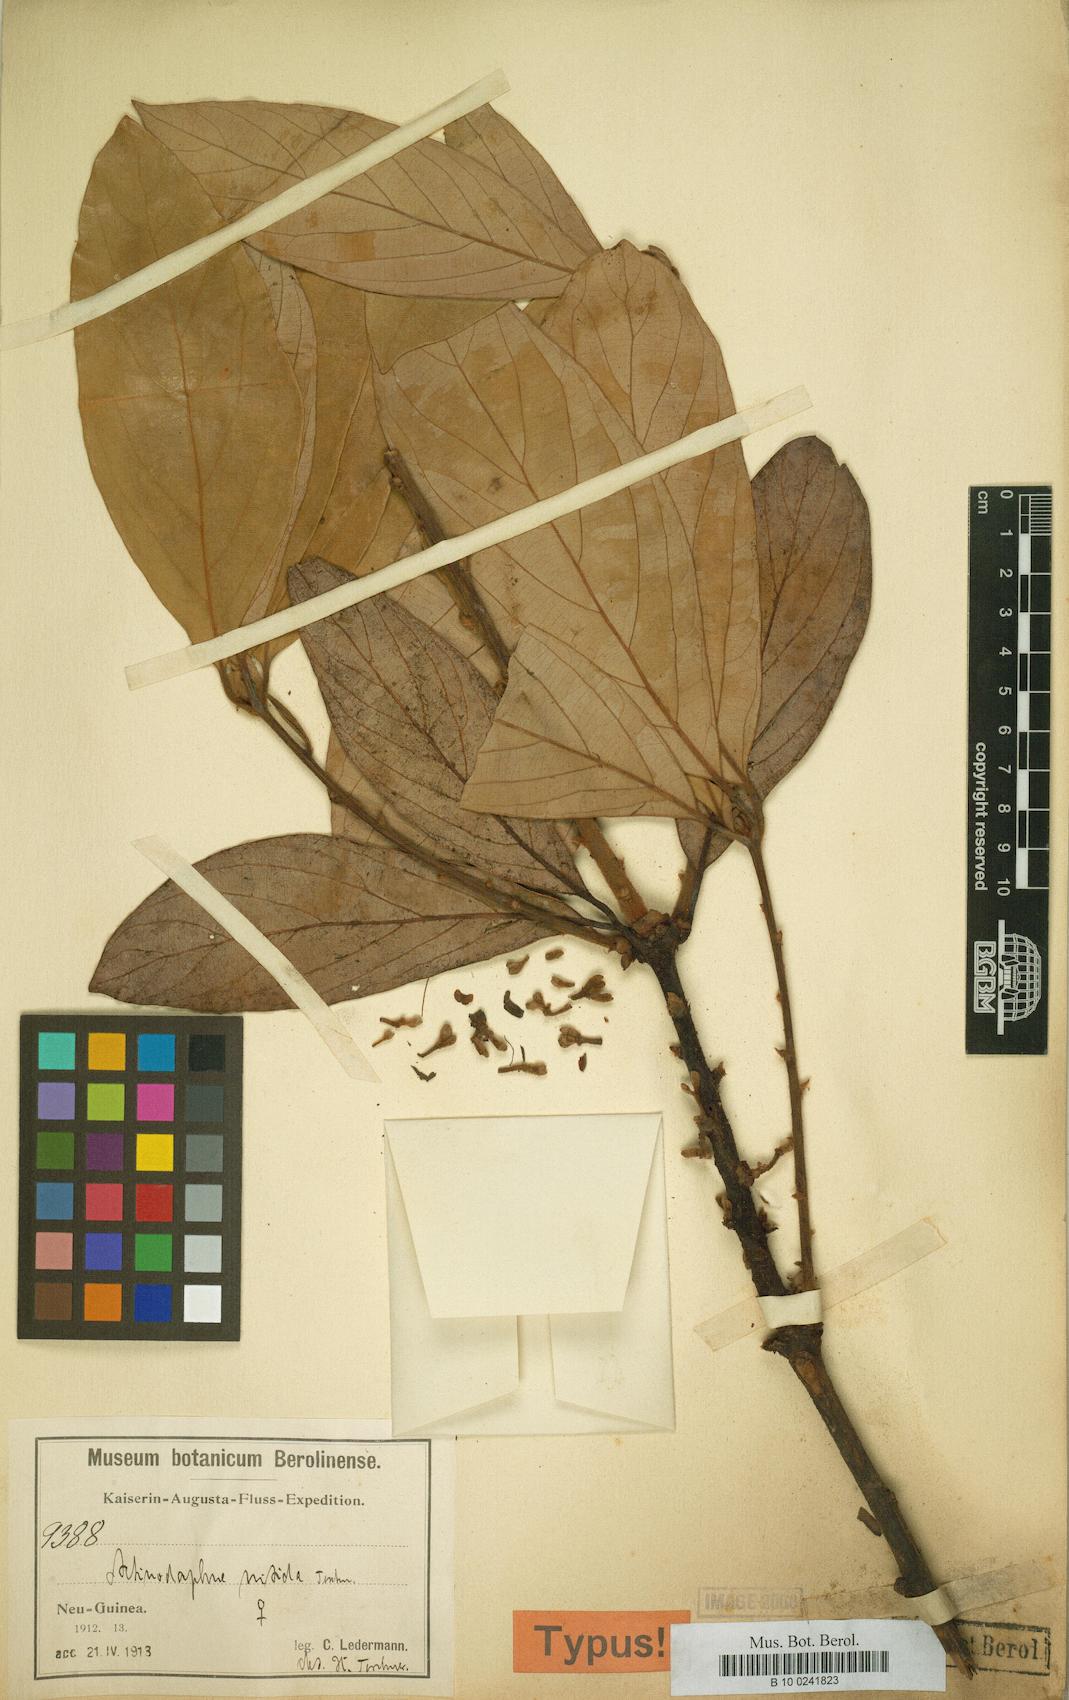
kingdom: Plantae
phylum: Tracheophyta
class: Magnoliopsida
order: Laurales
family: Lauraceae
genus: Actinodaphne
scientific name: Actinodaphne nitida
